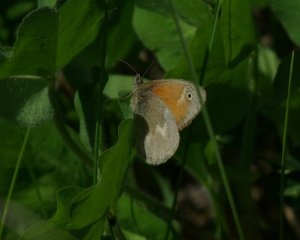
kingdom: Animalia
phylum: Arthropoda
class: Insecta
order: Lepidoptera
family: Nymphalidae
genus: Coenonympha
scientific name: Coenonympha tullia
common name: Large Heath
